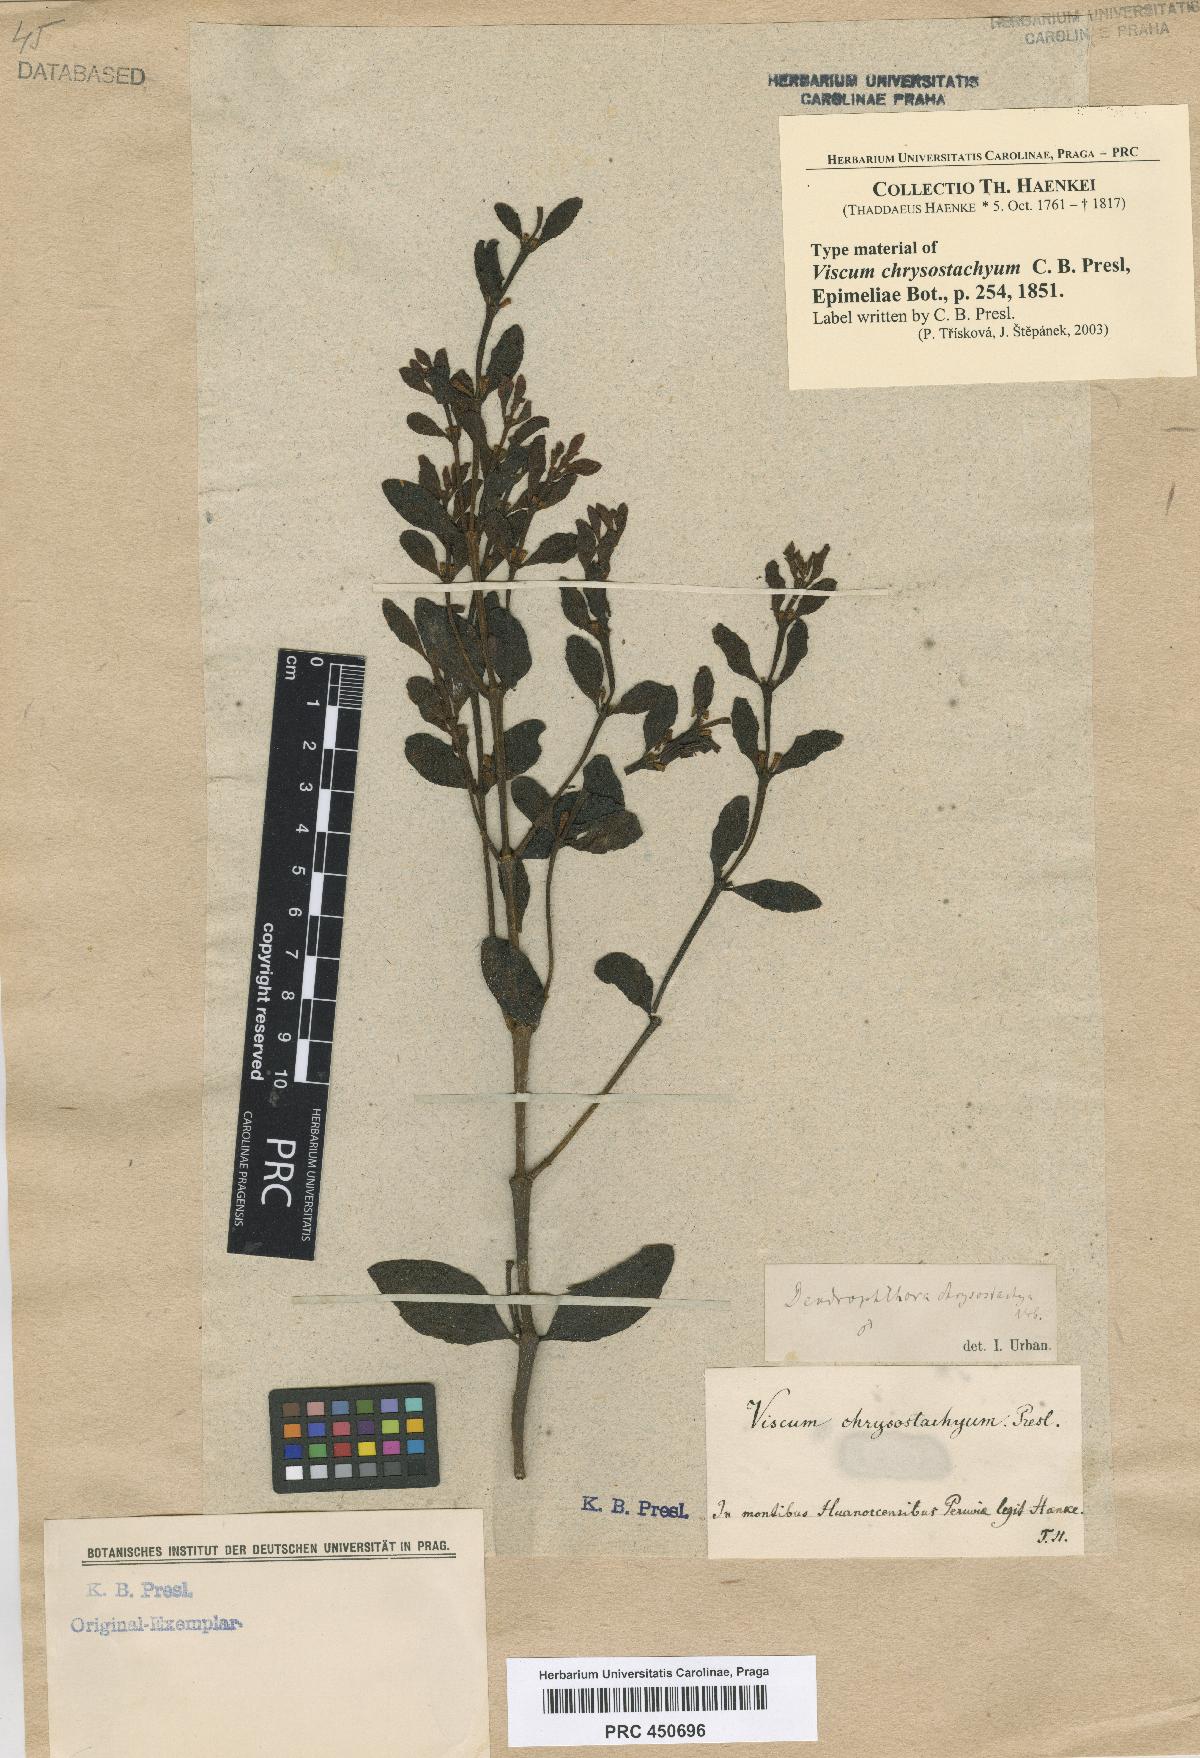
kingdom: Plantae
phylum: Tracheophyta
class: Magnoliopsida
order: Santalales
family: Viscaceae
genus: Dendrophthora
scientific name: Dendrophthora chrysostachya
